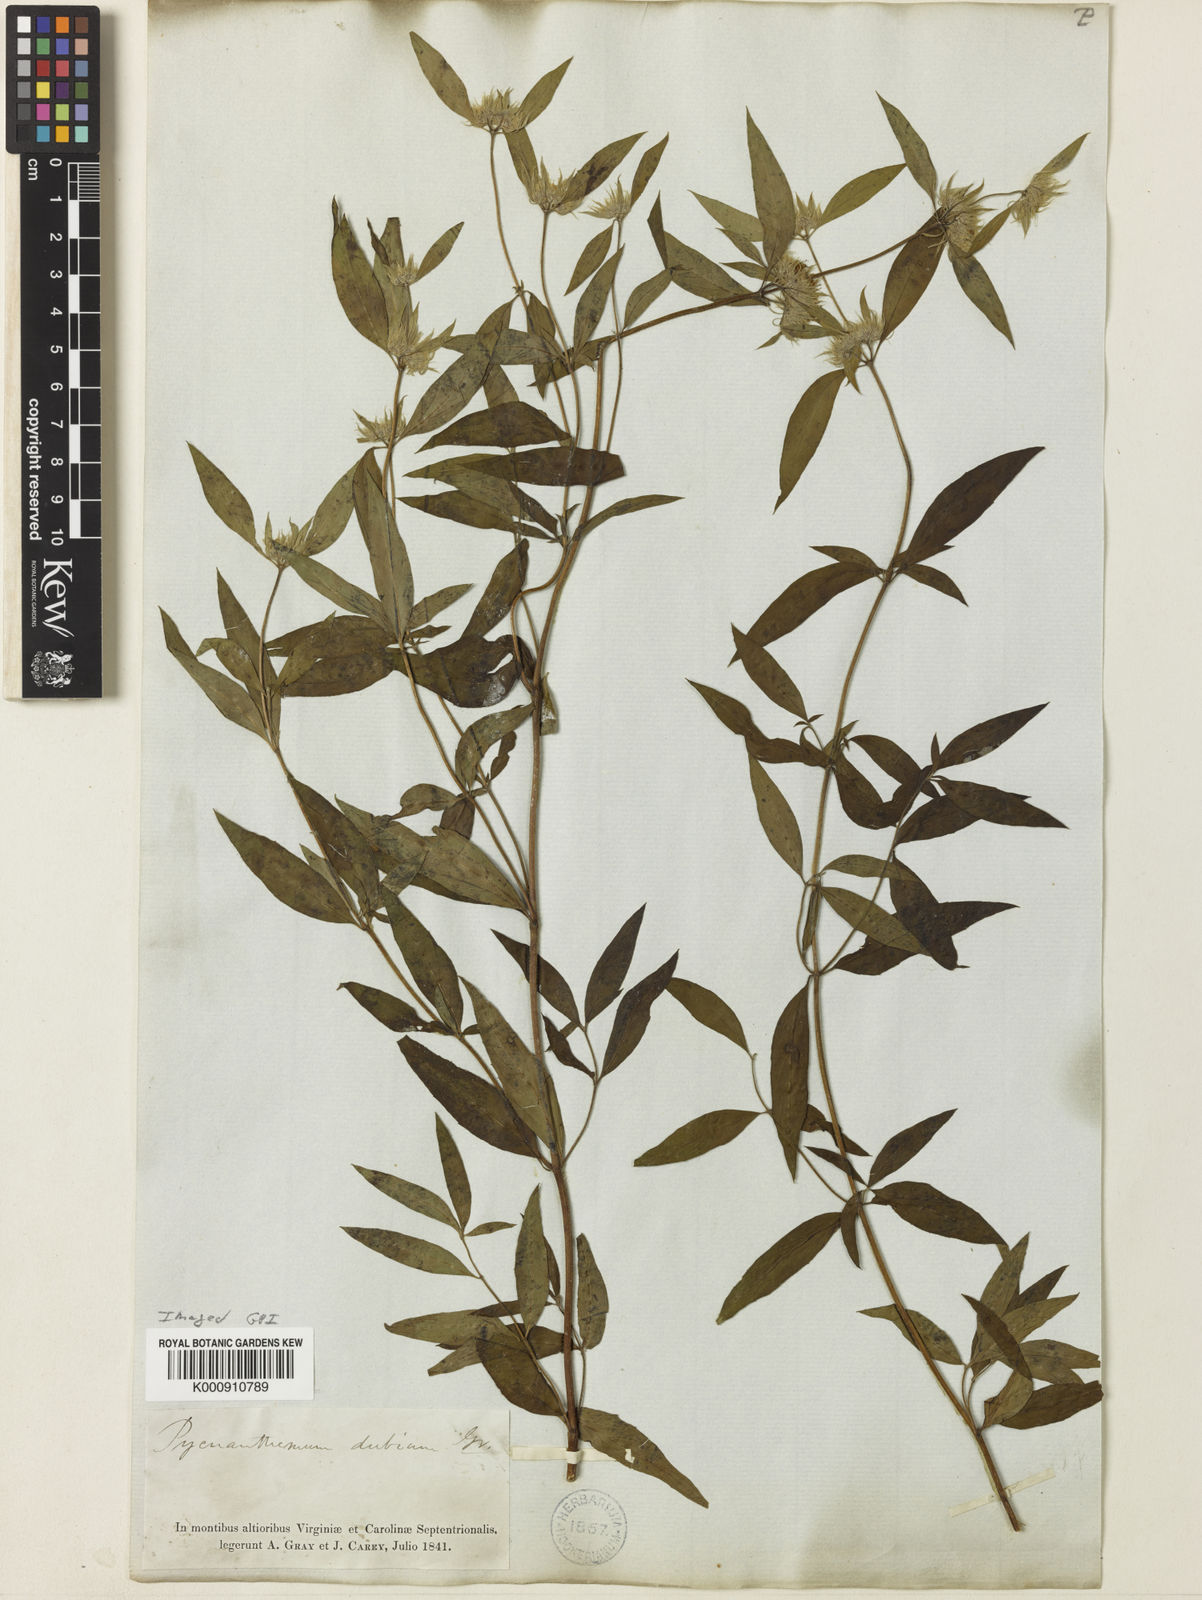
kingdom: Plantae
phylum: Tracheophyta
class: Magnoliopsida
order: Lamiales
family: Lamiaceae
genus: Pycnanthemum
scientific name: Pycnanthemum verticillatum
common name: Whorled mountain-mint
